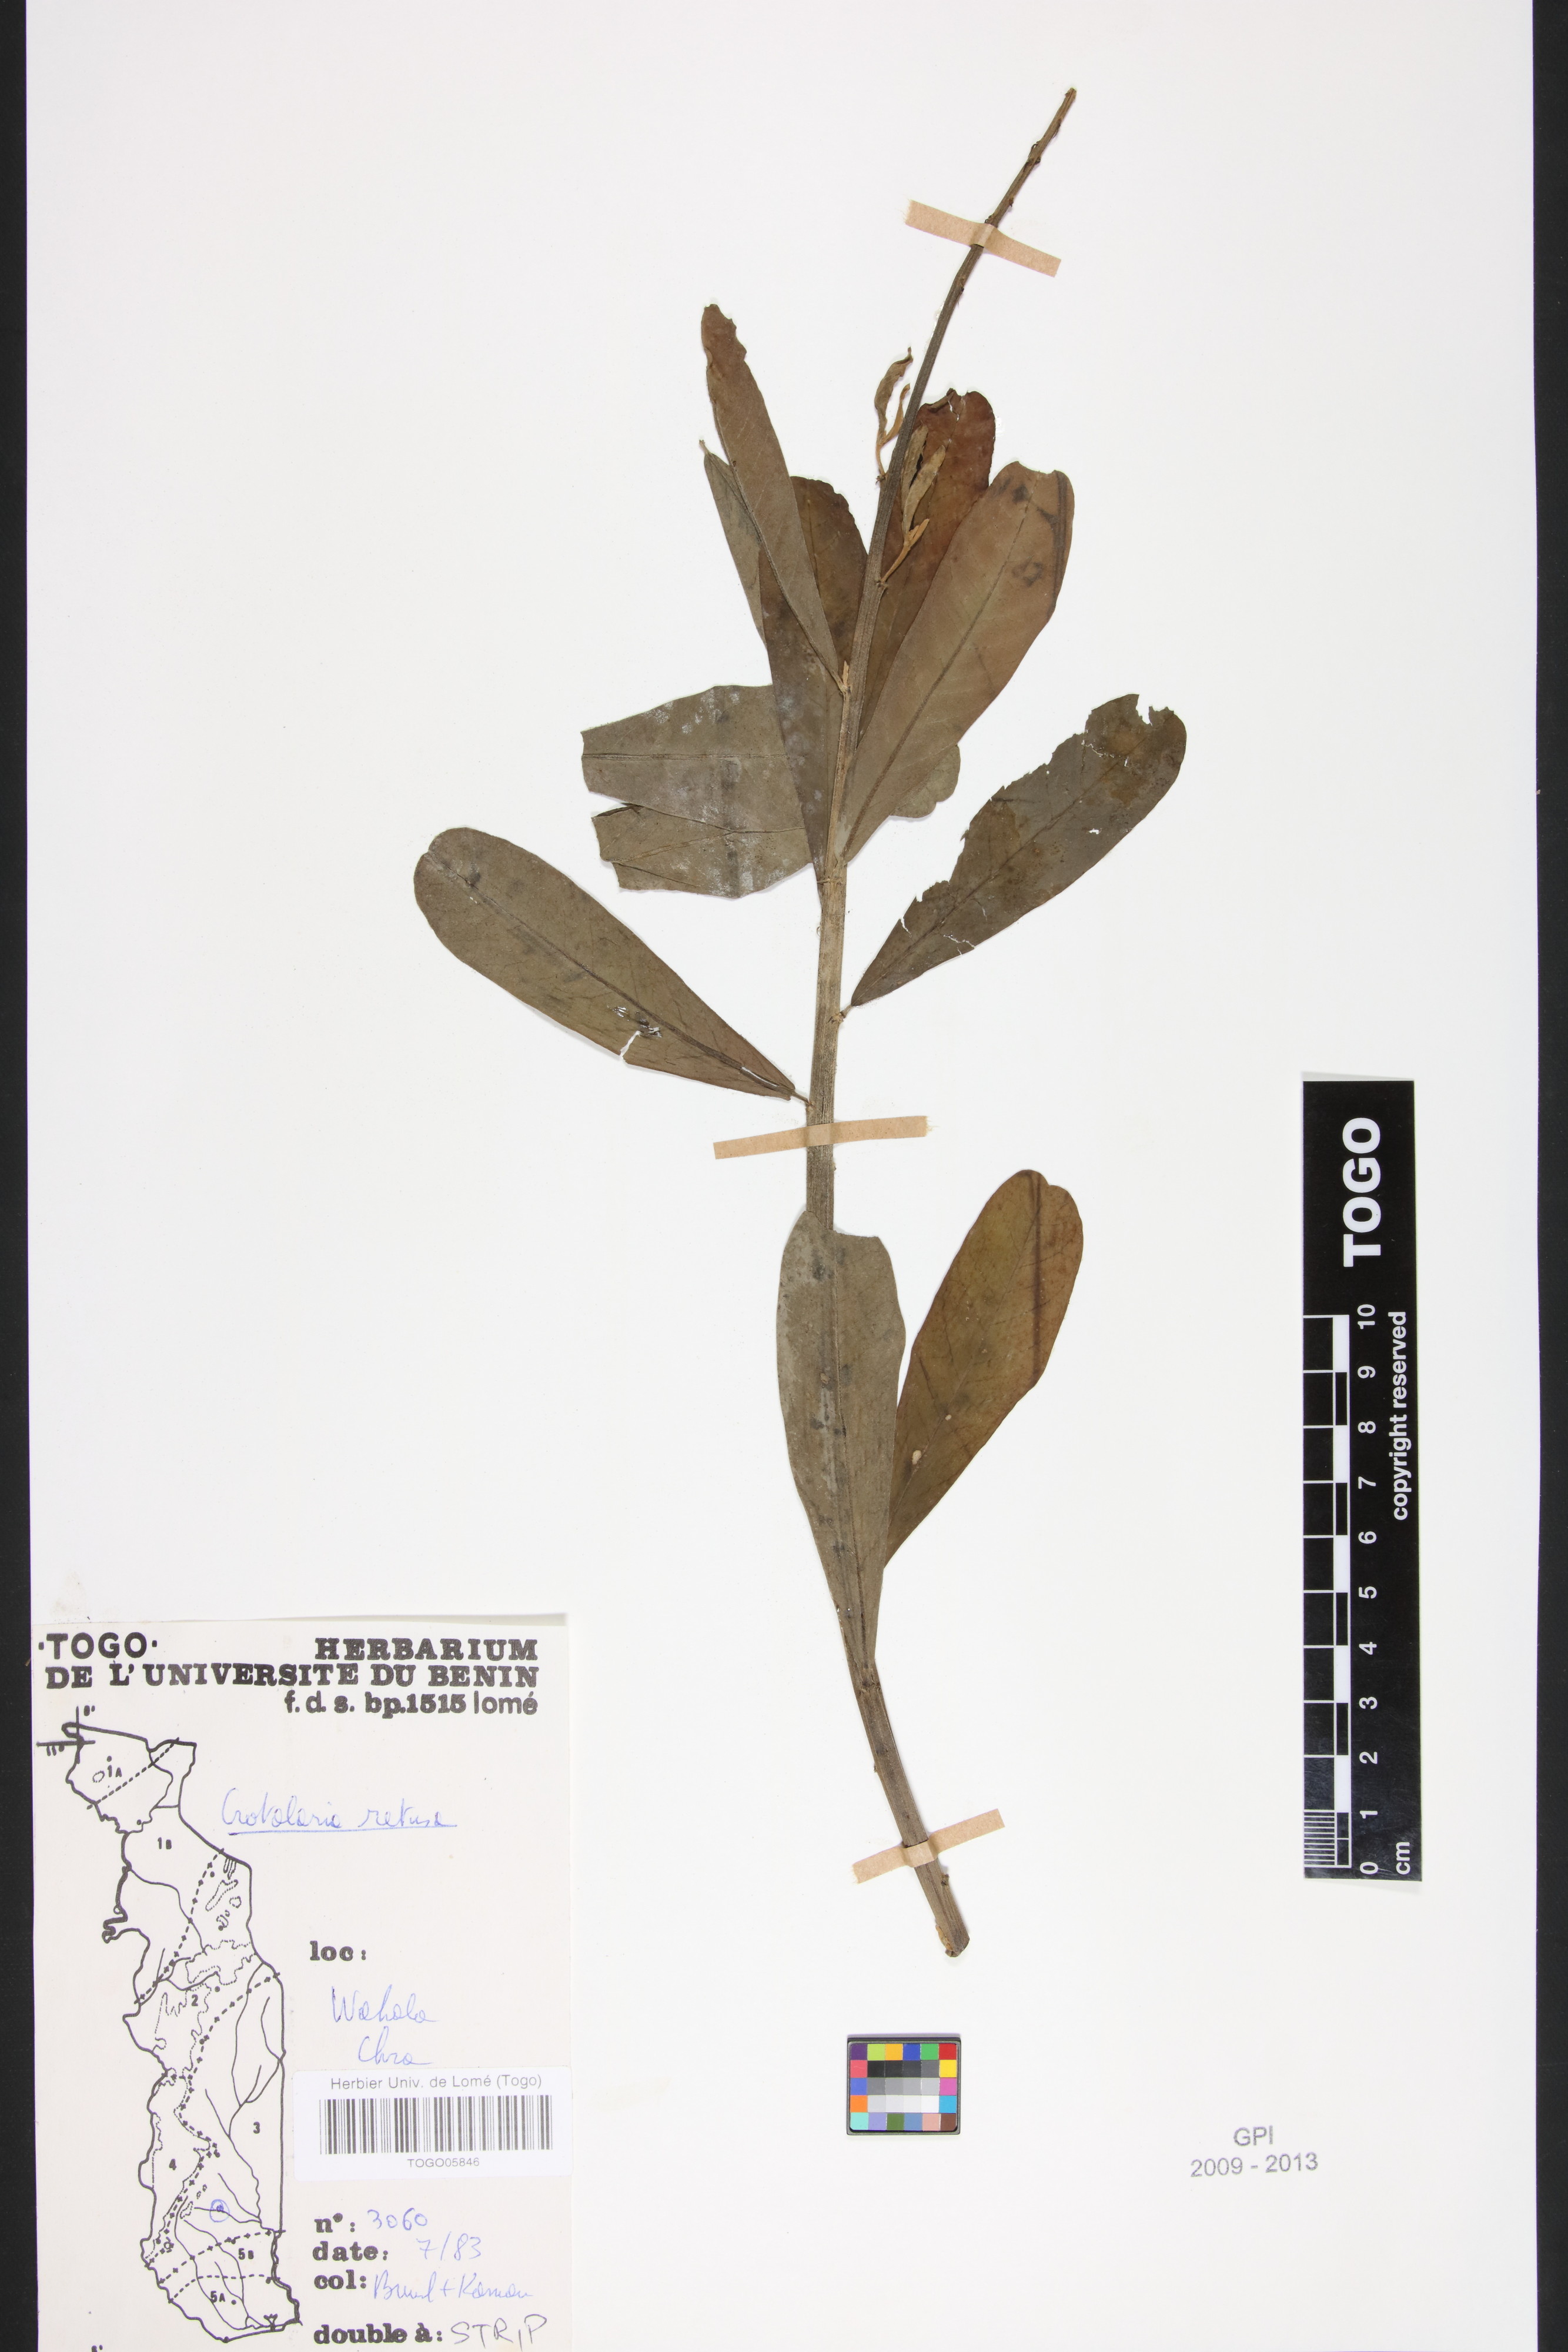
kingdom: Plantae
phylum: Tracheophyta
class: Magnoliopsida
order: Fabales
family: Fabaceae
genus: Crotalaria
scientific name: Crotalaria retusa
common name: Rattleweed
